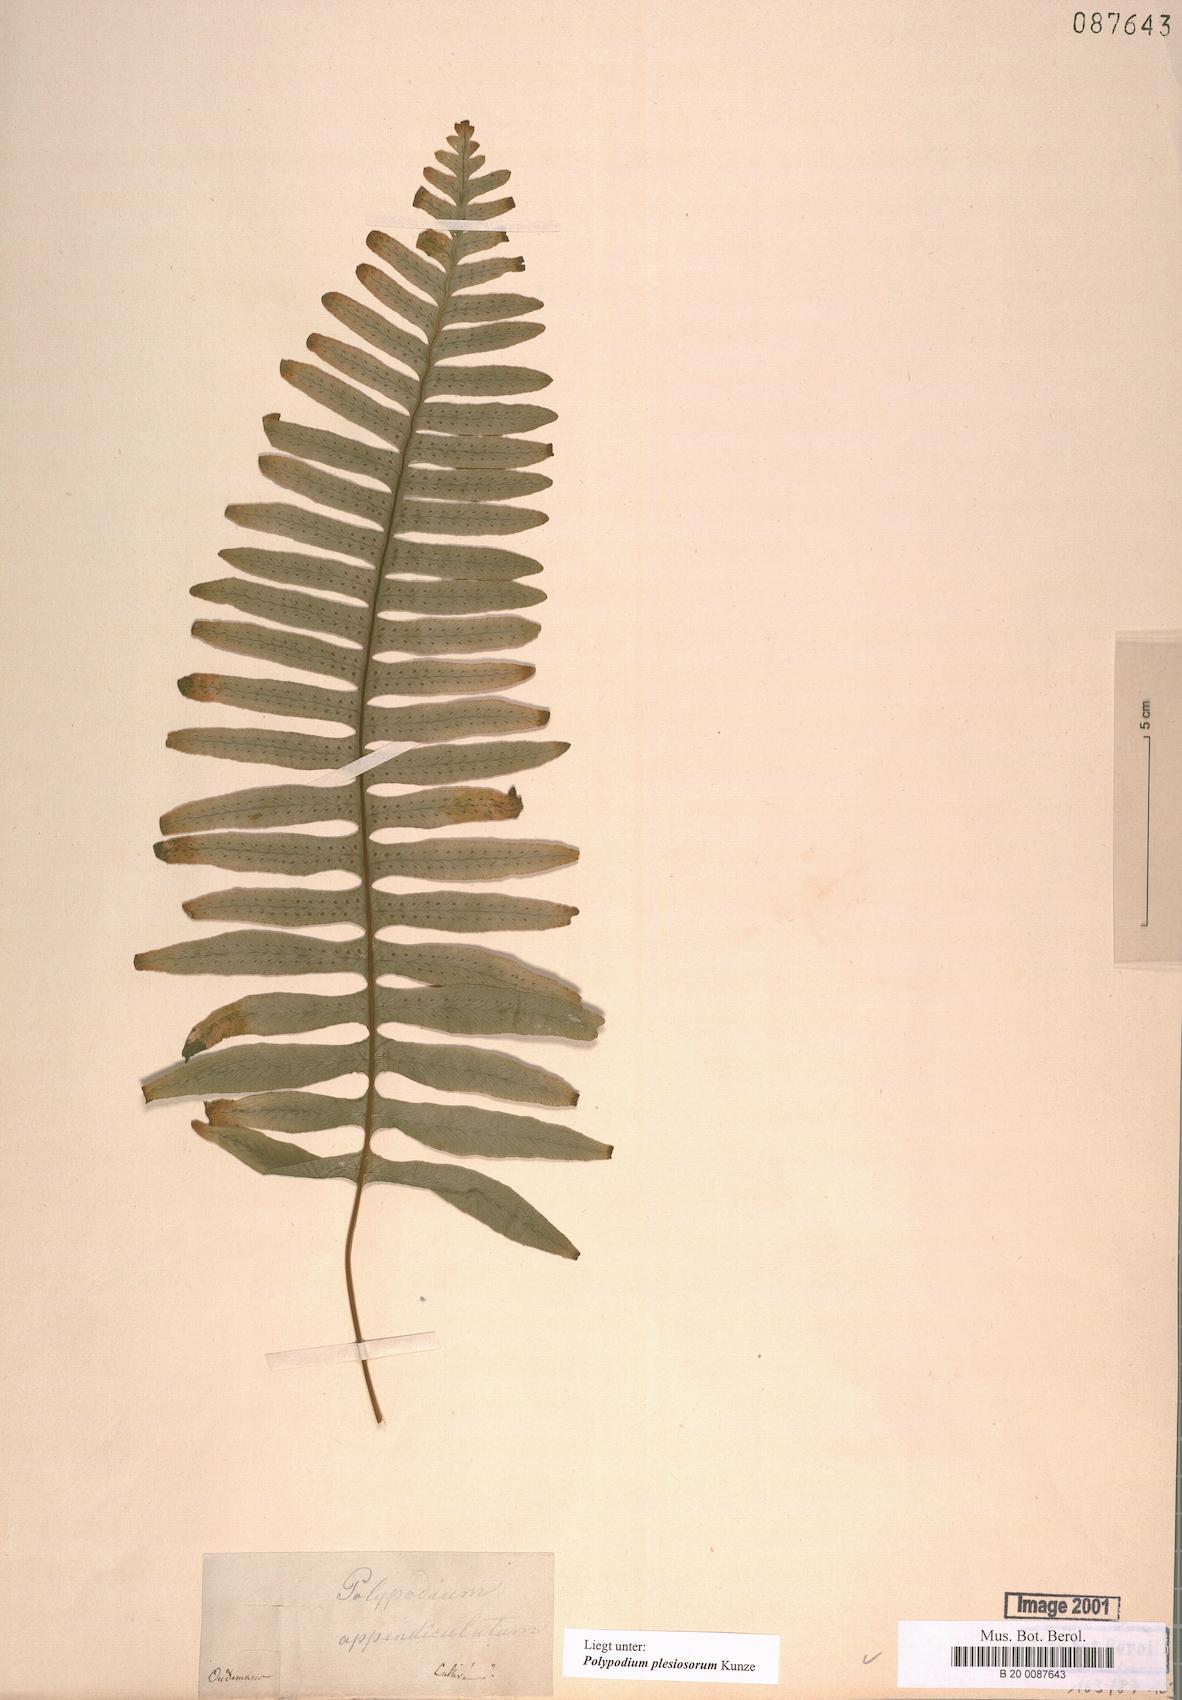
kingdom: Plantae
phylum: Tracheophyta
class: Polypodiopsida
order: Polypodiales
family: Polypodiaceae
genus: Polypodium
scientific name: Polypodium plesiosorum
